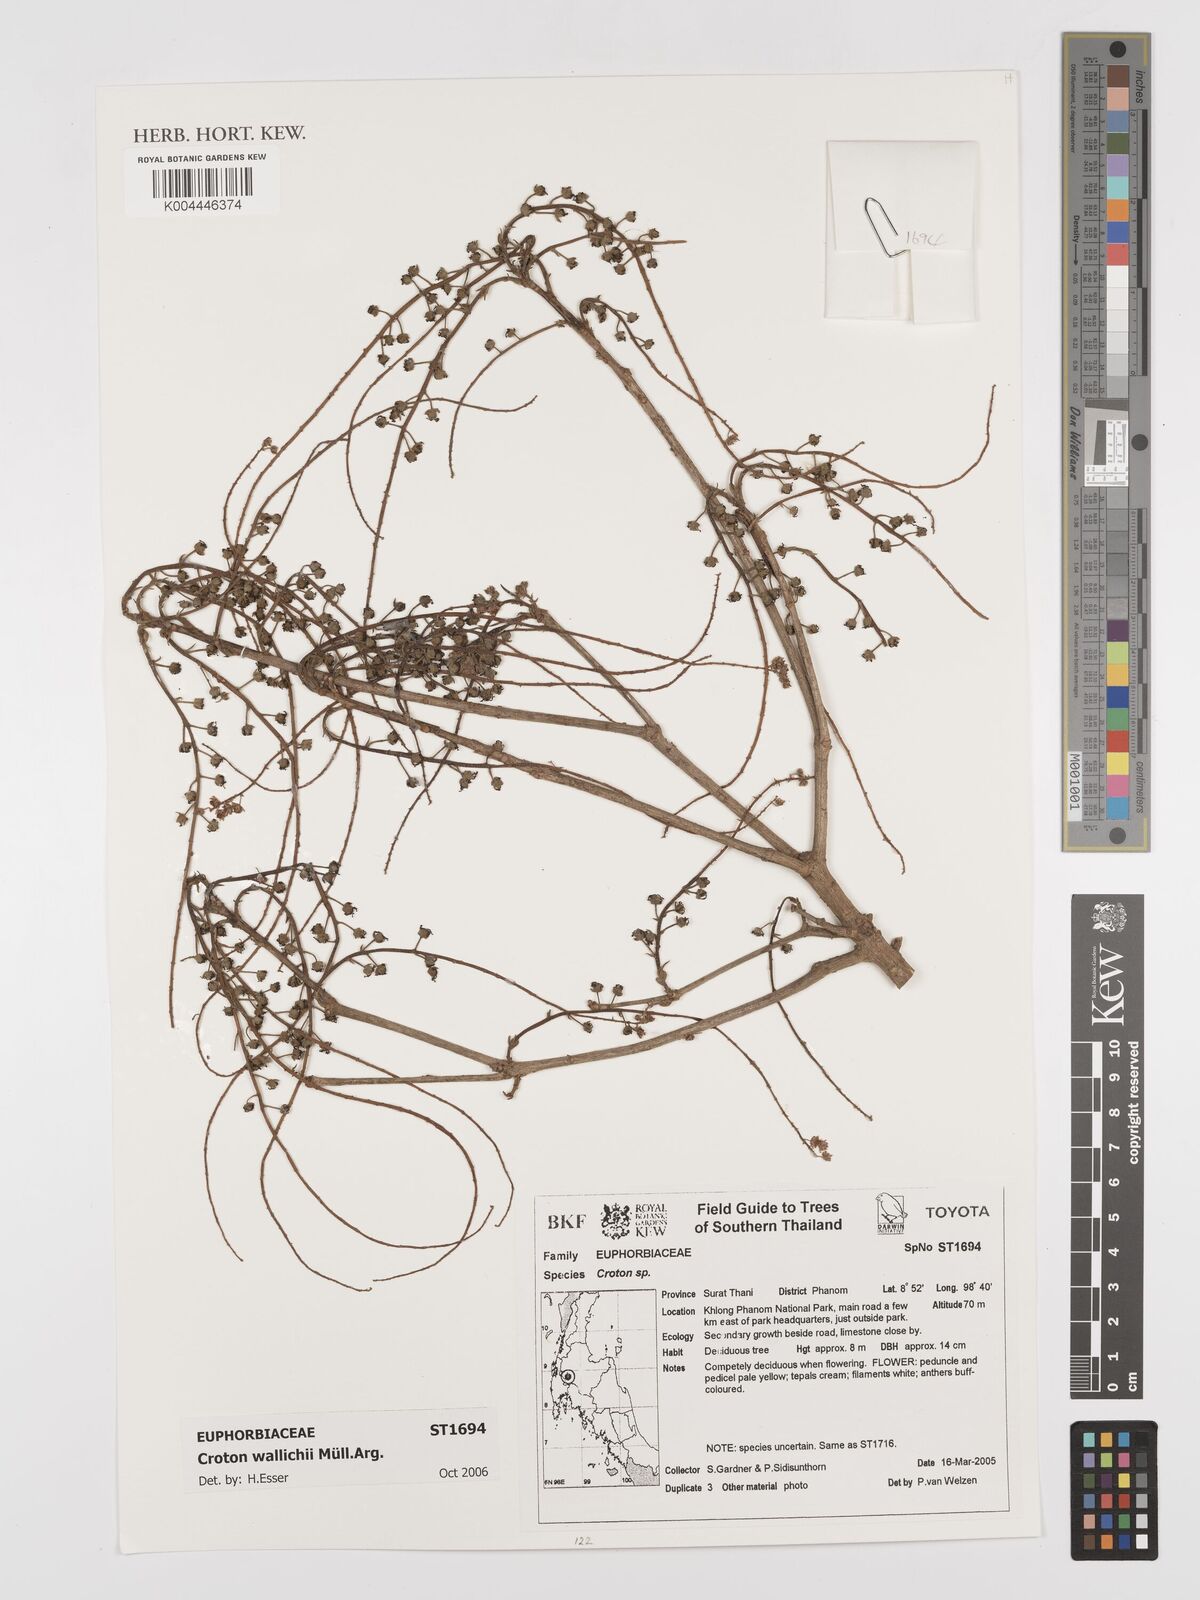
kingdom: Plantae
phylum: Tracheophyta
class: Magnoliopsida
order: Malpighiales
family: Euphorbiaceae
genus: Croton
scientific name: Croton wallichii
